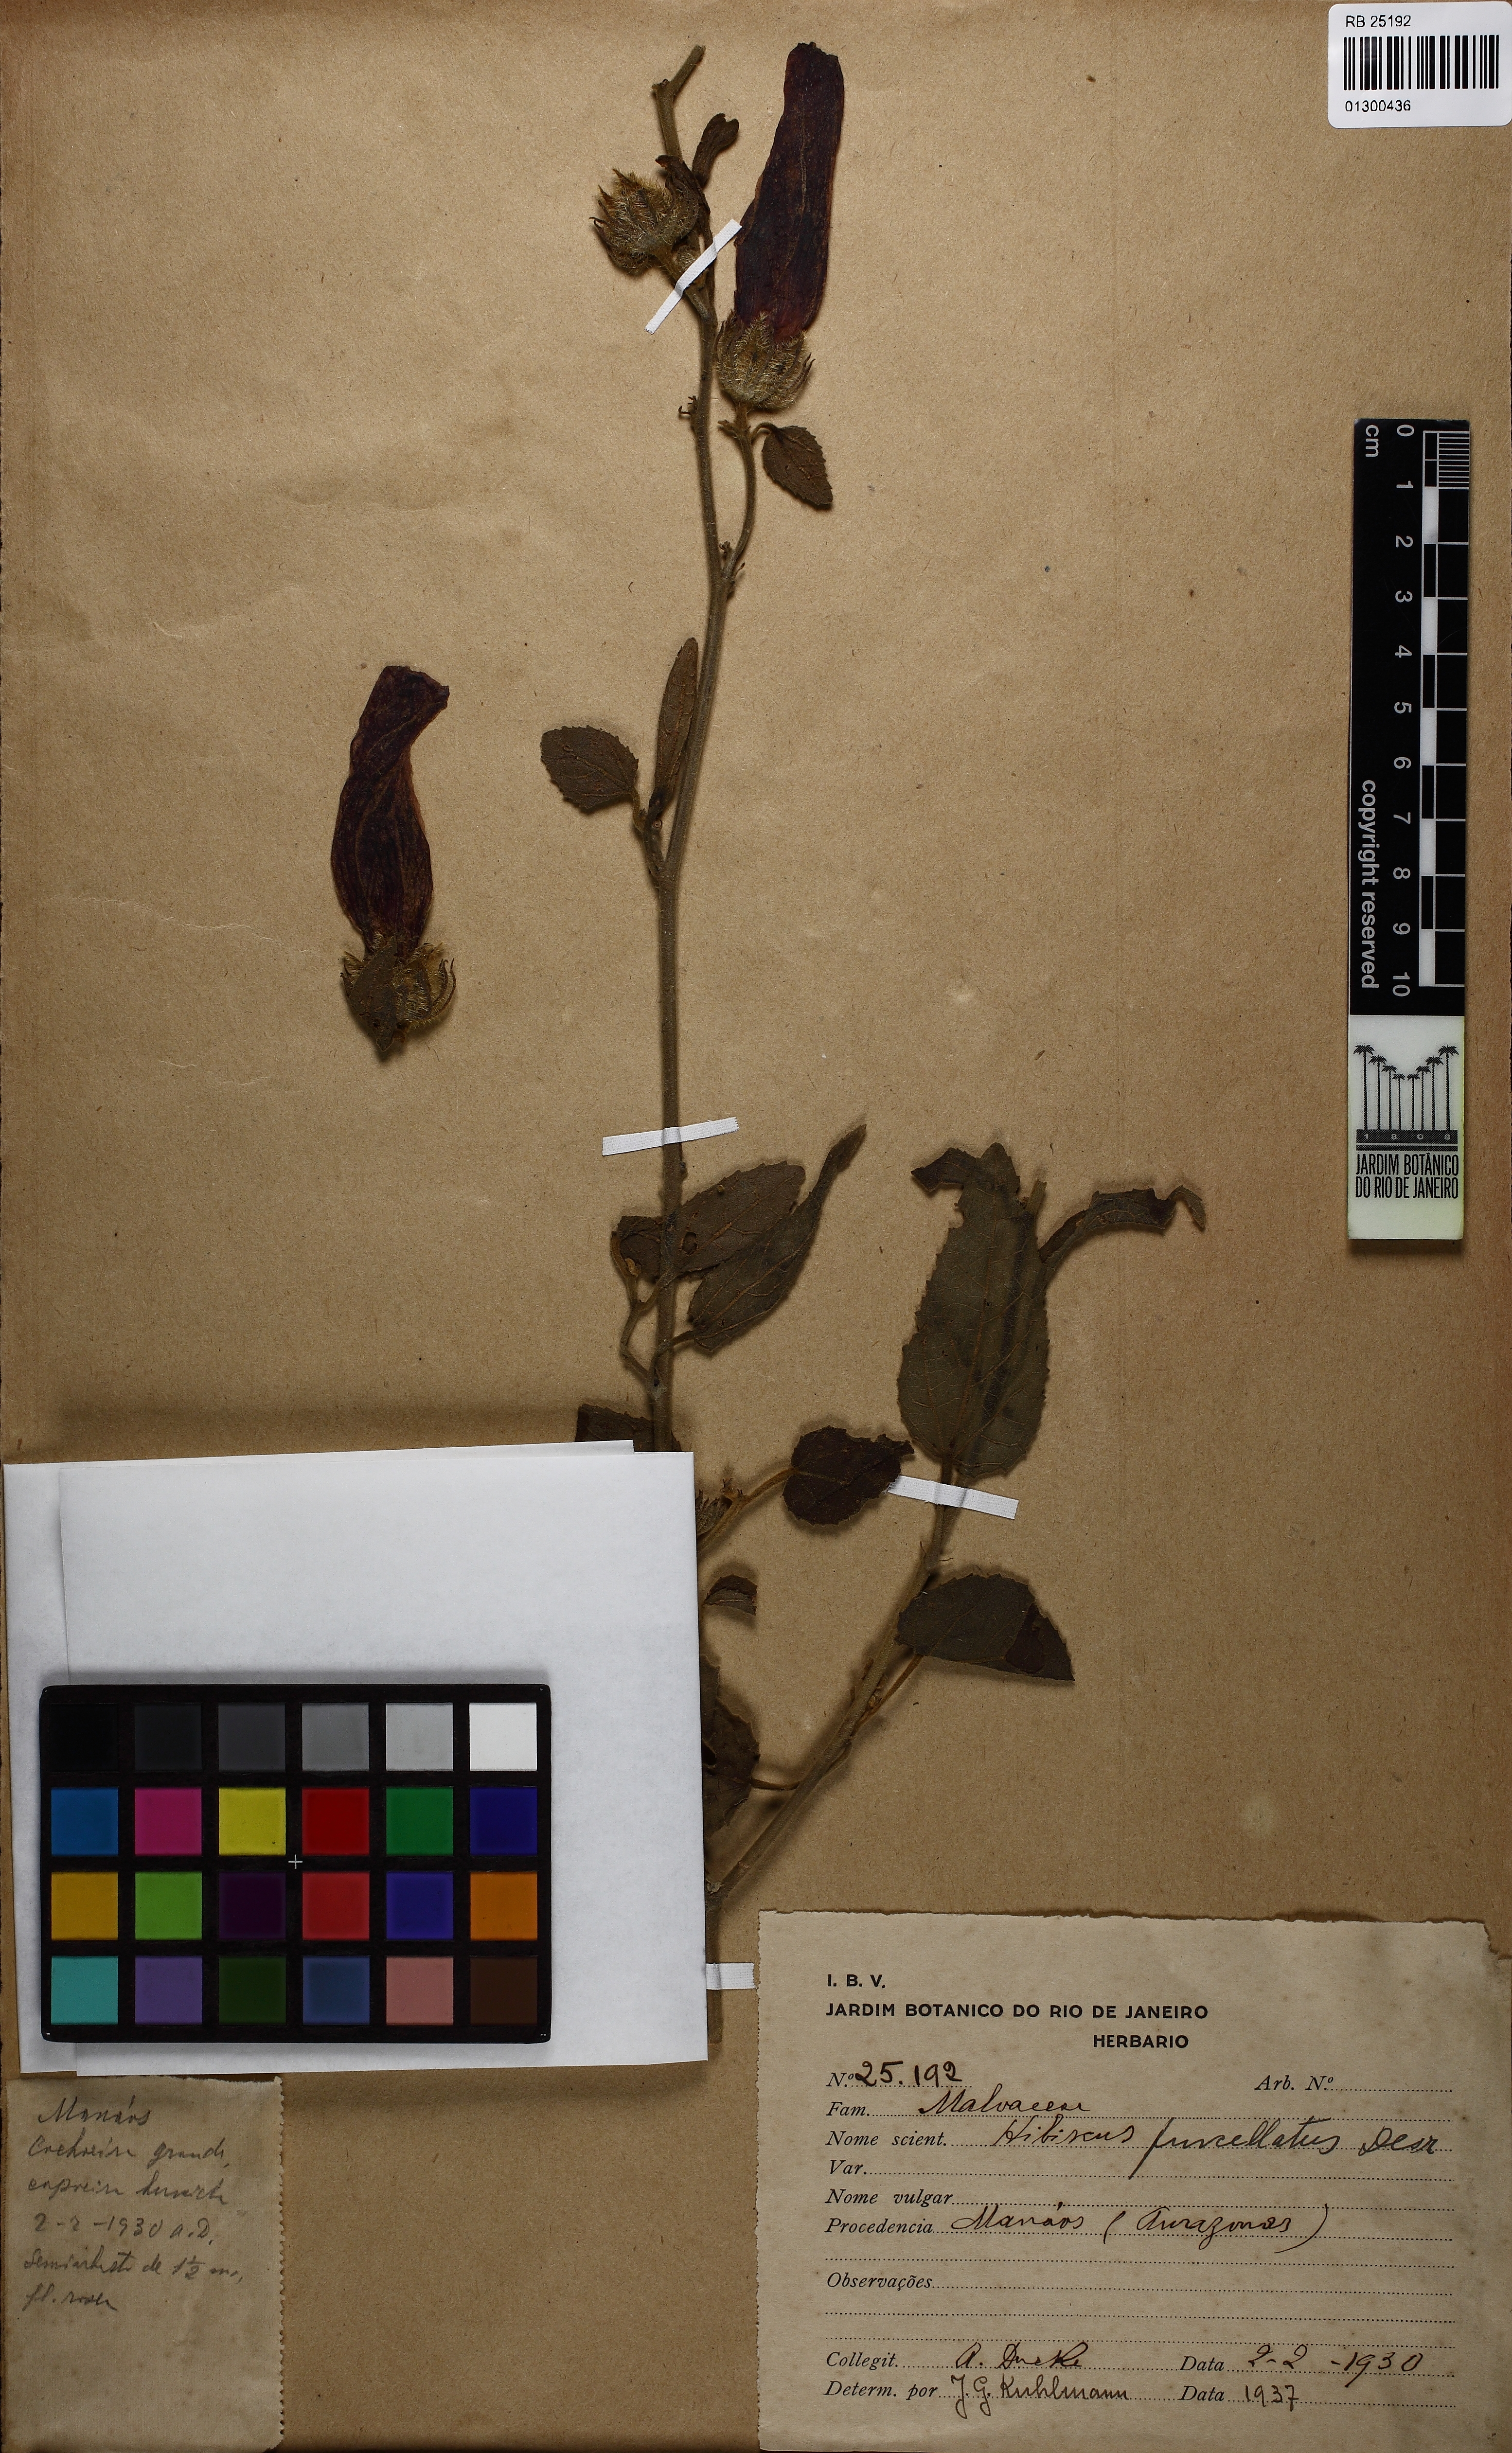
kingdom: Plantae
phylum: Tracheophyta
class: Magnoliopsida
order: Malvales
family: Malvaceae
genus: Hibiscus
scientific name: Hibiscus furcellatus
